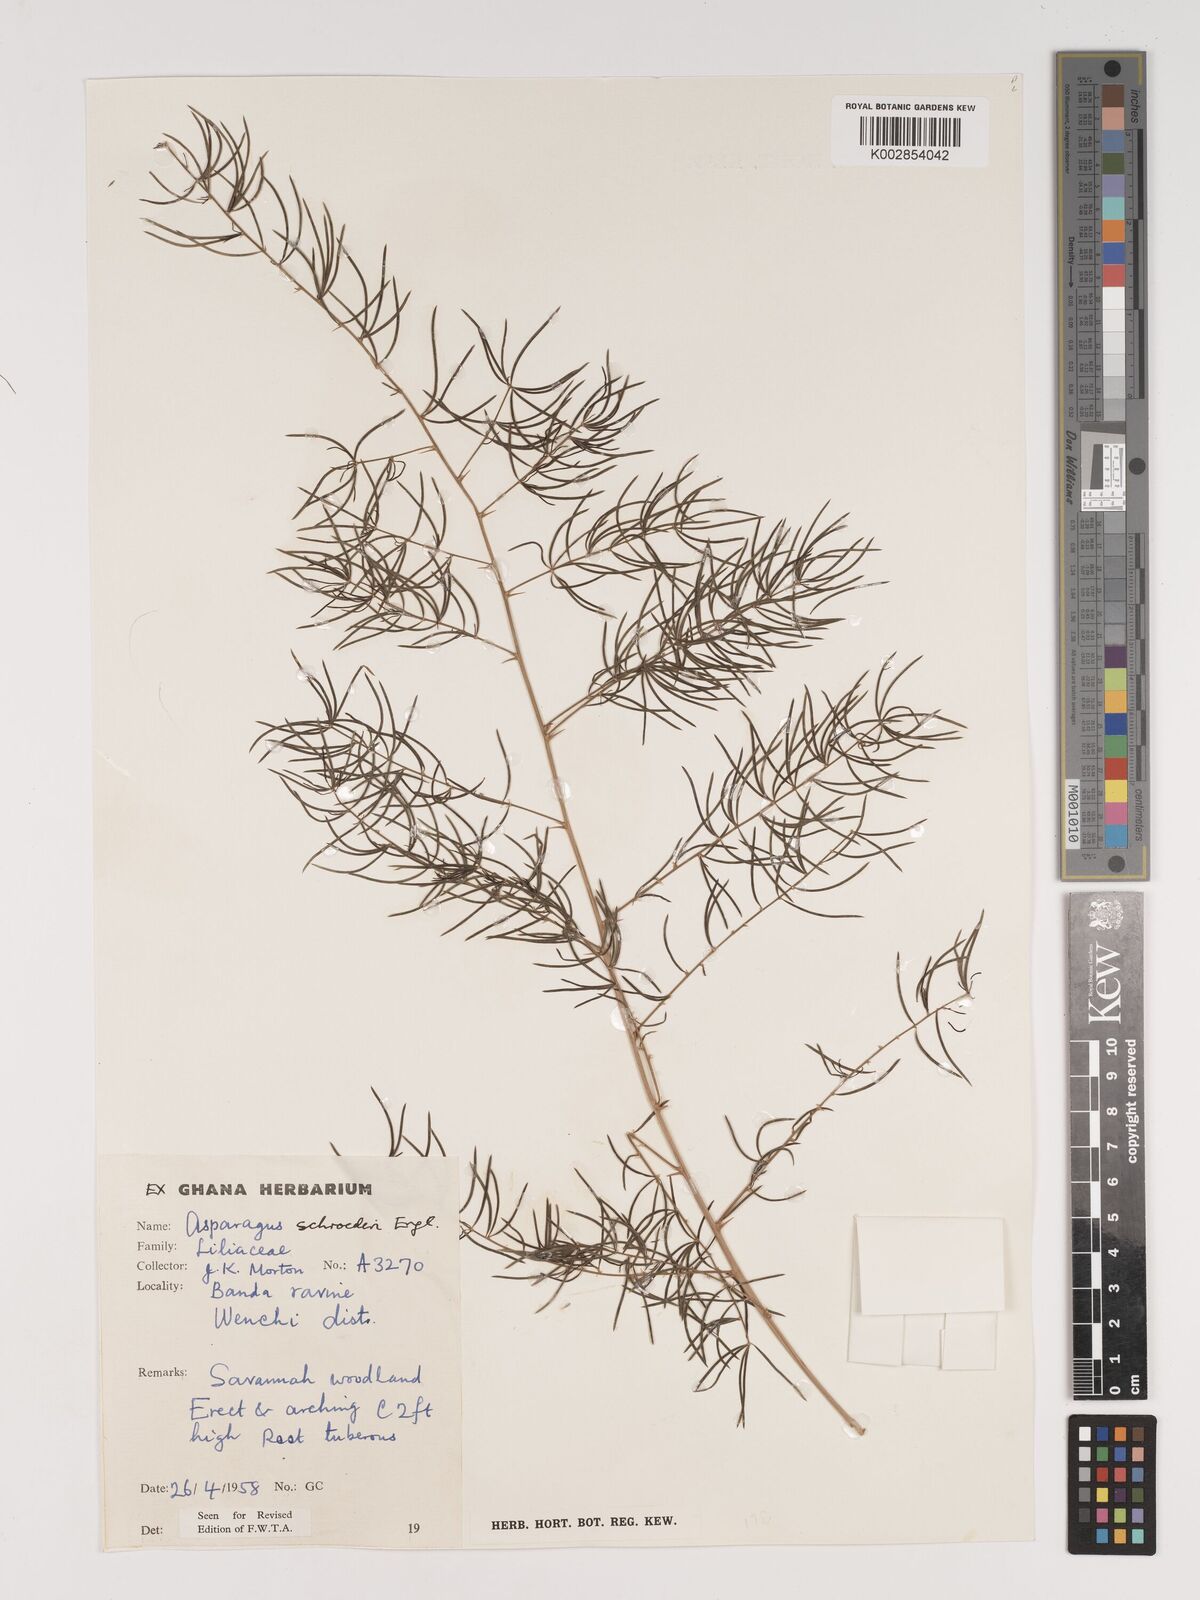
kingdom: Plantae
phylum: Tracheophyta
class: Liliopsida
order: Asparagales
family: Asparagaceae
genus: Asparagus
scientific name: Asparagus schroederi
